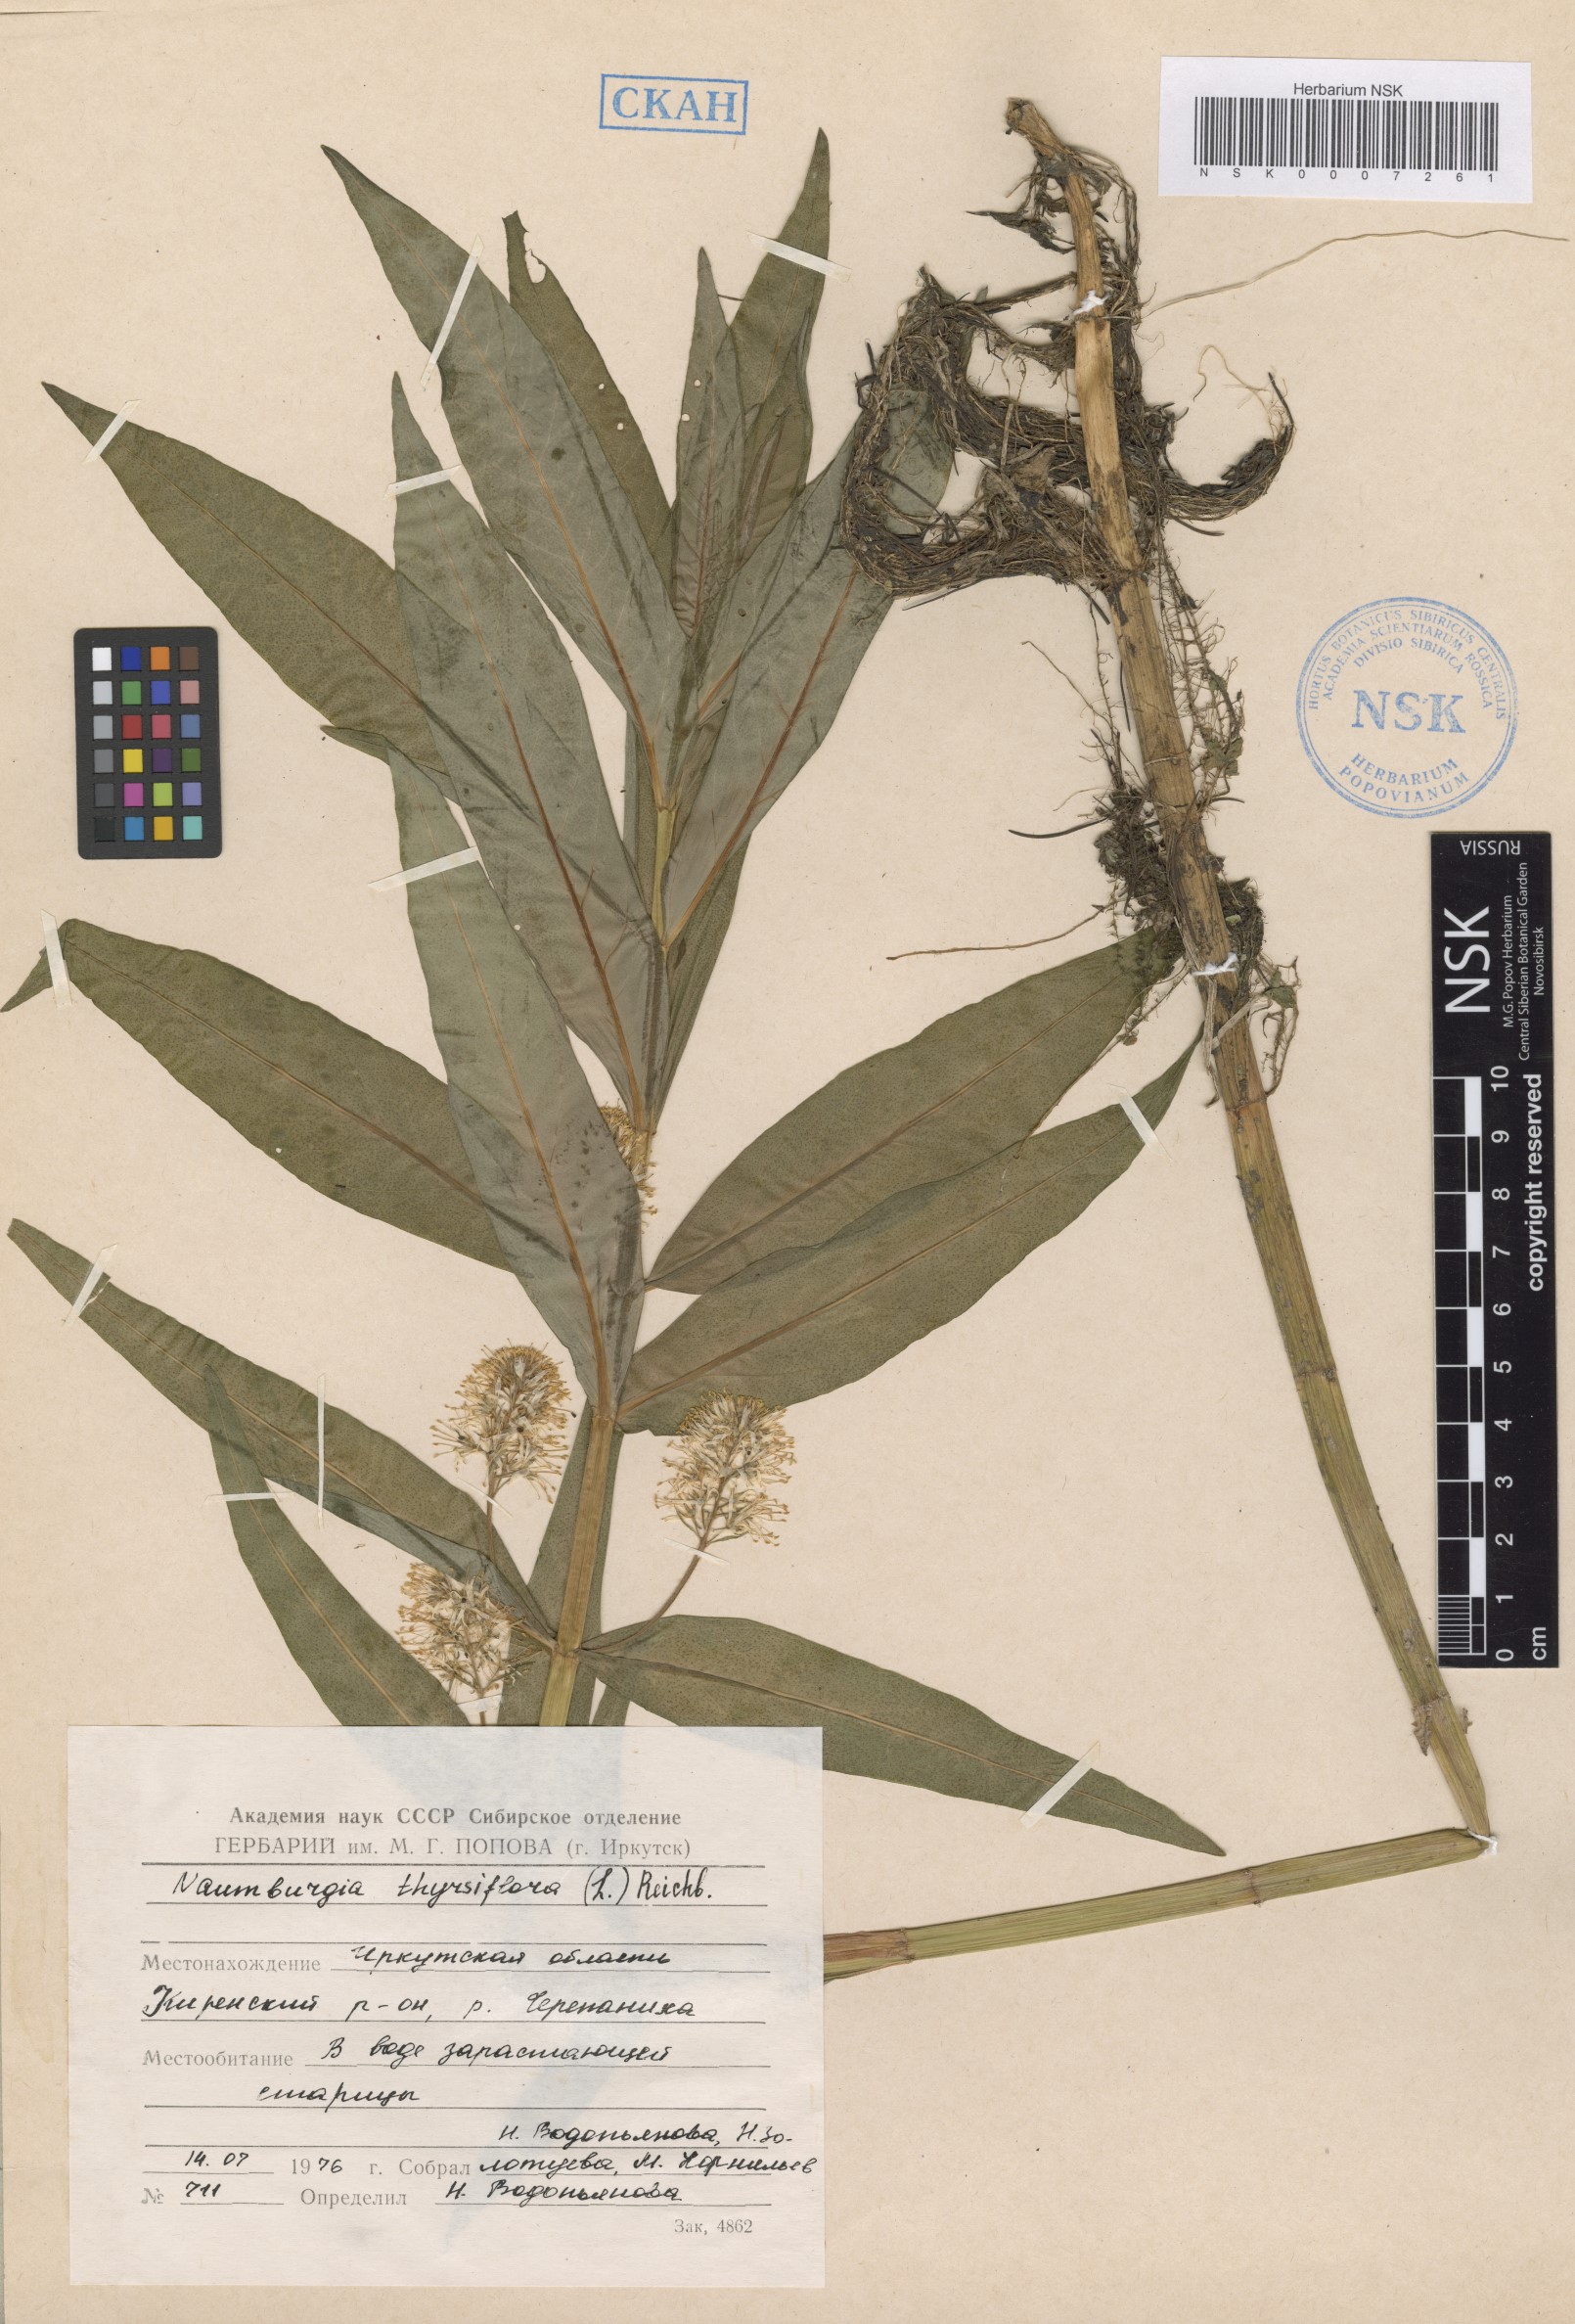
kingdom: Plantae
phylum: Tracheophyta
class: Magnoliopsida
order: Ericales
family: Primulaceae
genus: Lysimachia
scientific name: Lysimachia thyrsiflora
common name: Tufted loosestrife
